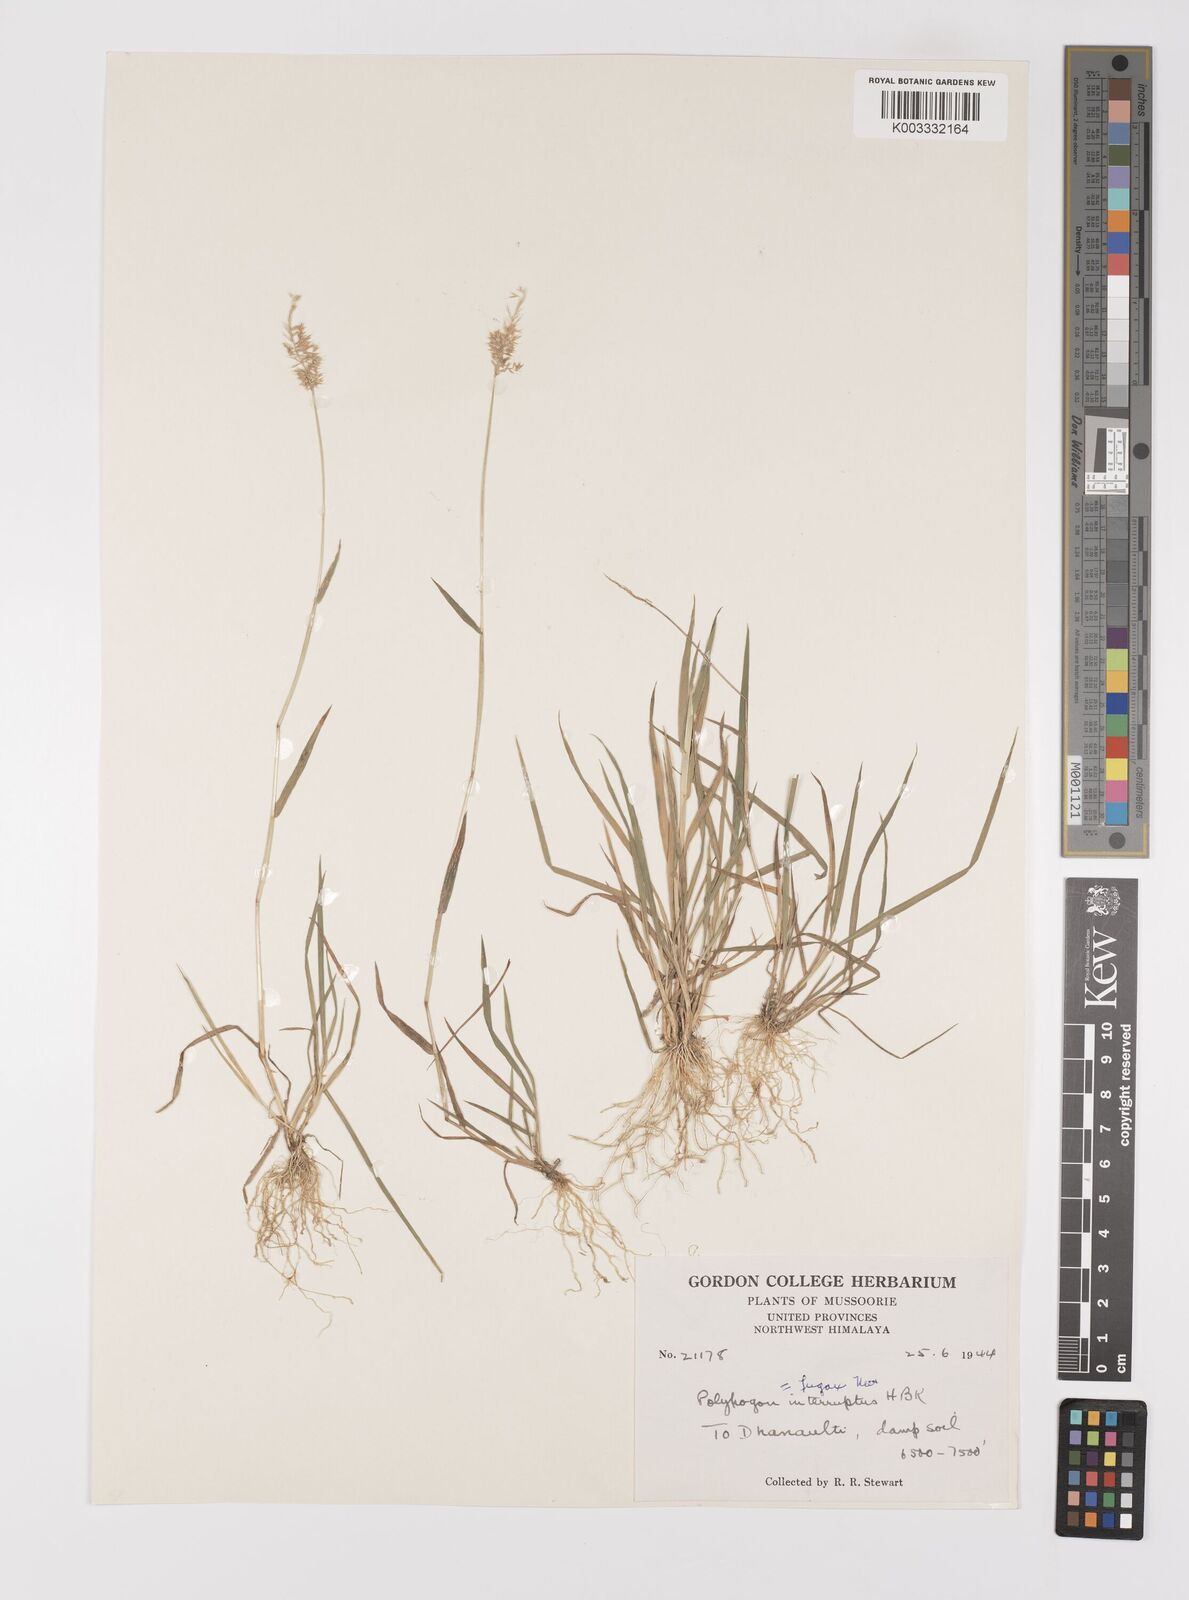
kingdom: Plantae
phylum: Tracheophyta
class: Liliopsida
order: Poales
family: Poaceae
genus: Polypogon
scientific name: Polypogon fugax
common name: Asia minor bluegrass
